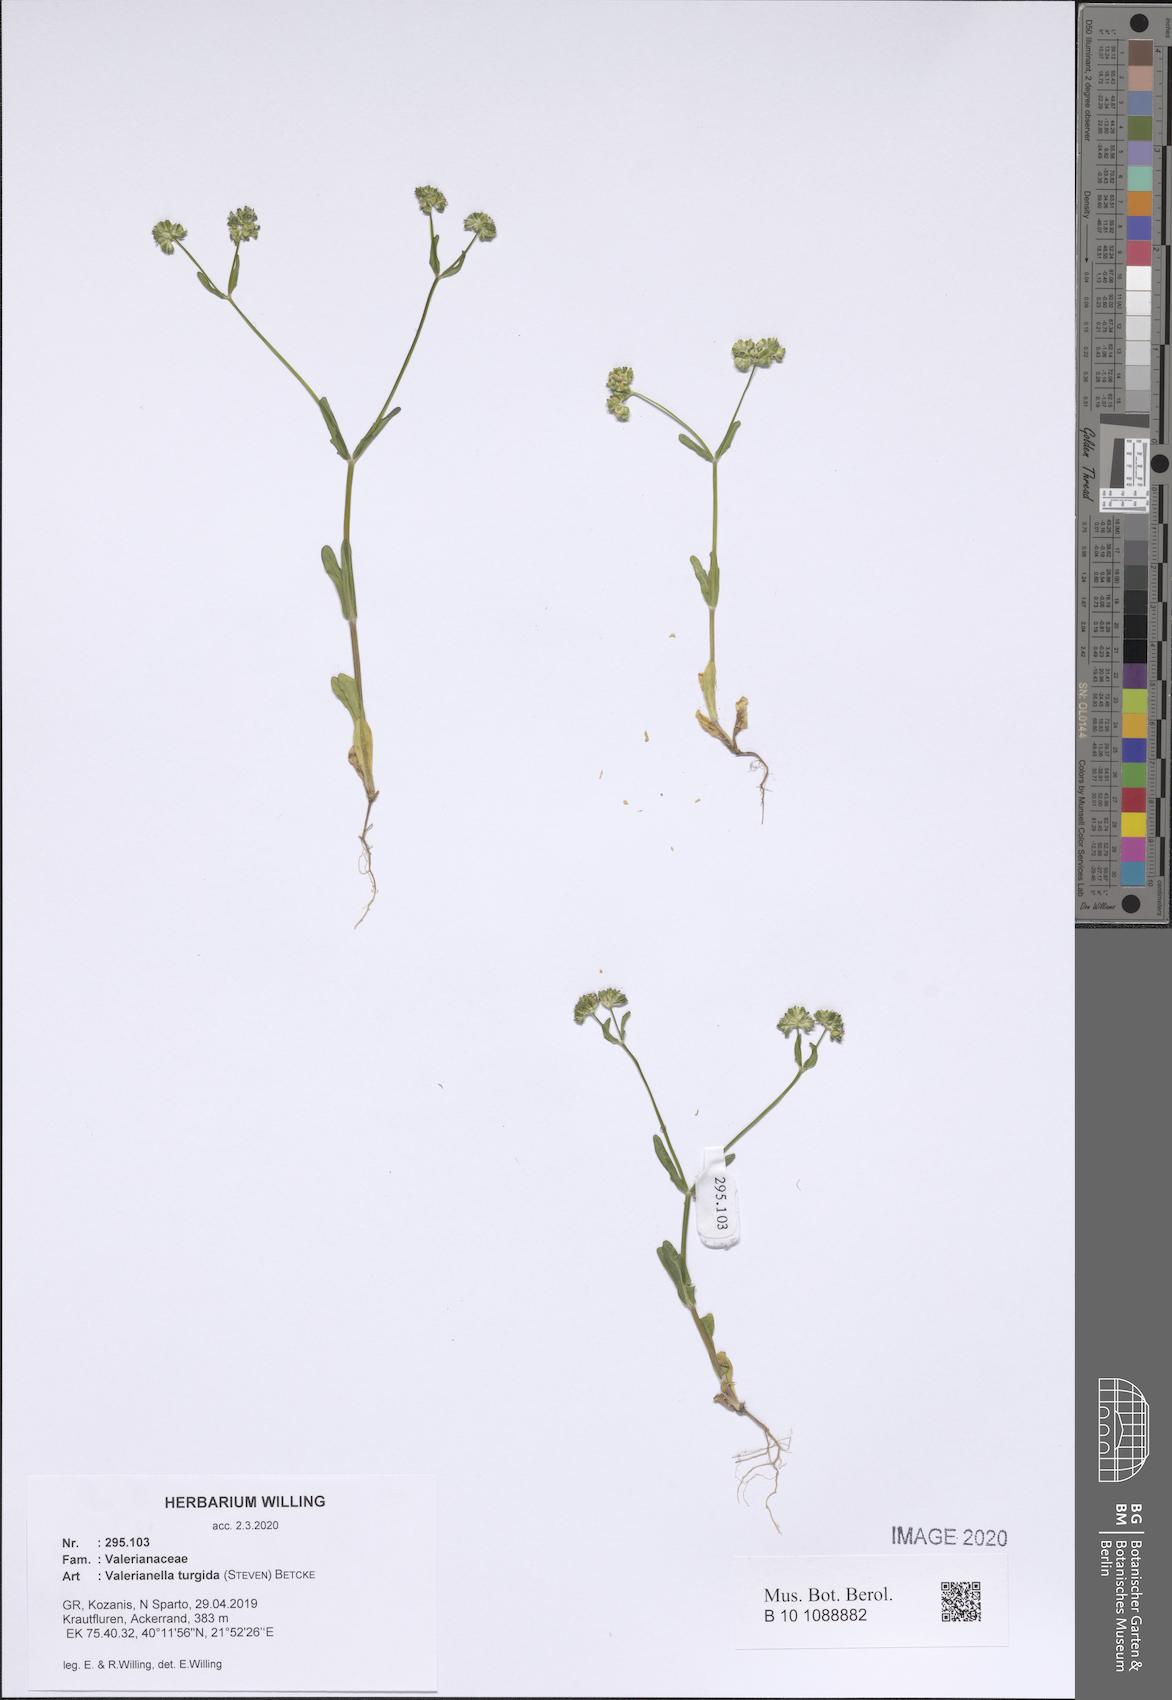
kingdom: Plantae
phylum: Tracheophyta
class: Magnoliopsida
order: Dipsacales
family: Caprifoliaceae
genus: Valerianella
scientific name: Valerianella turgida
